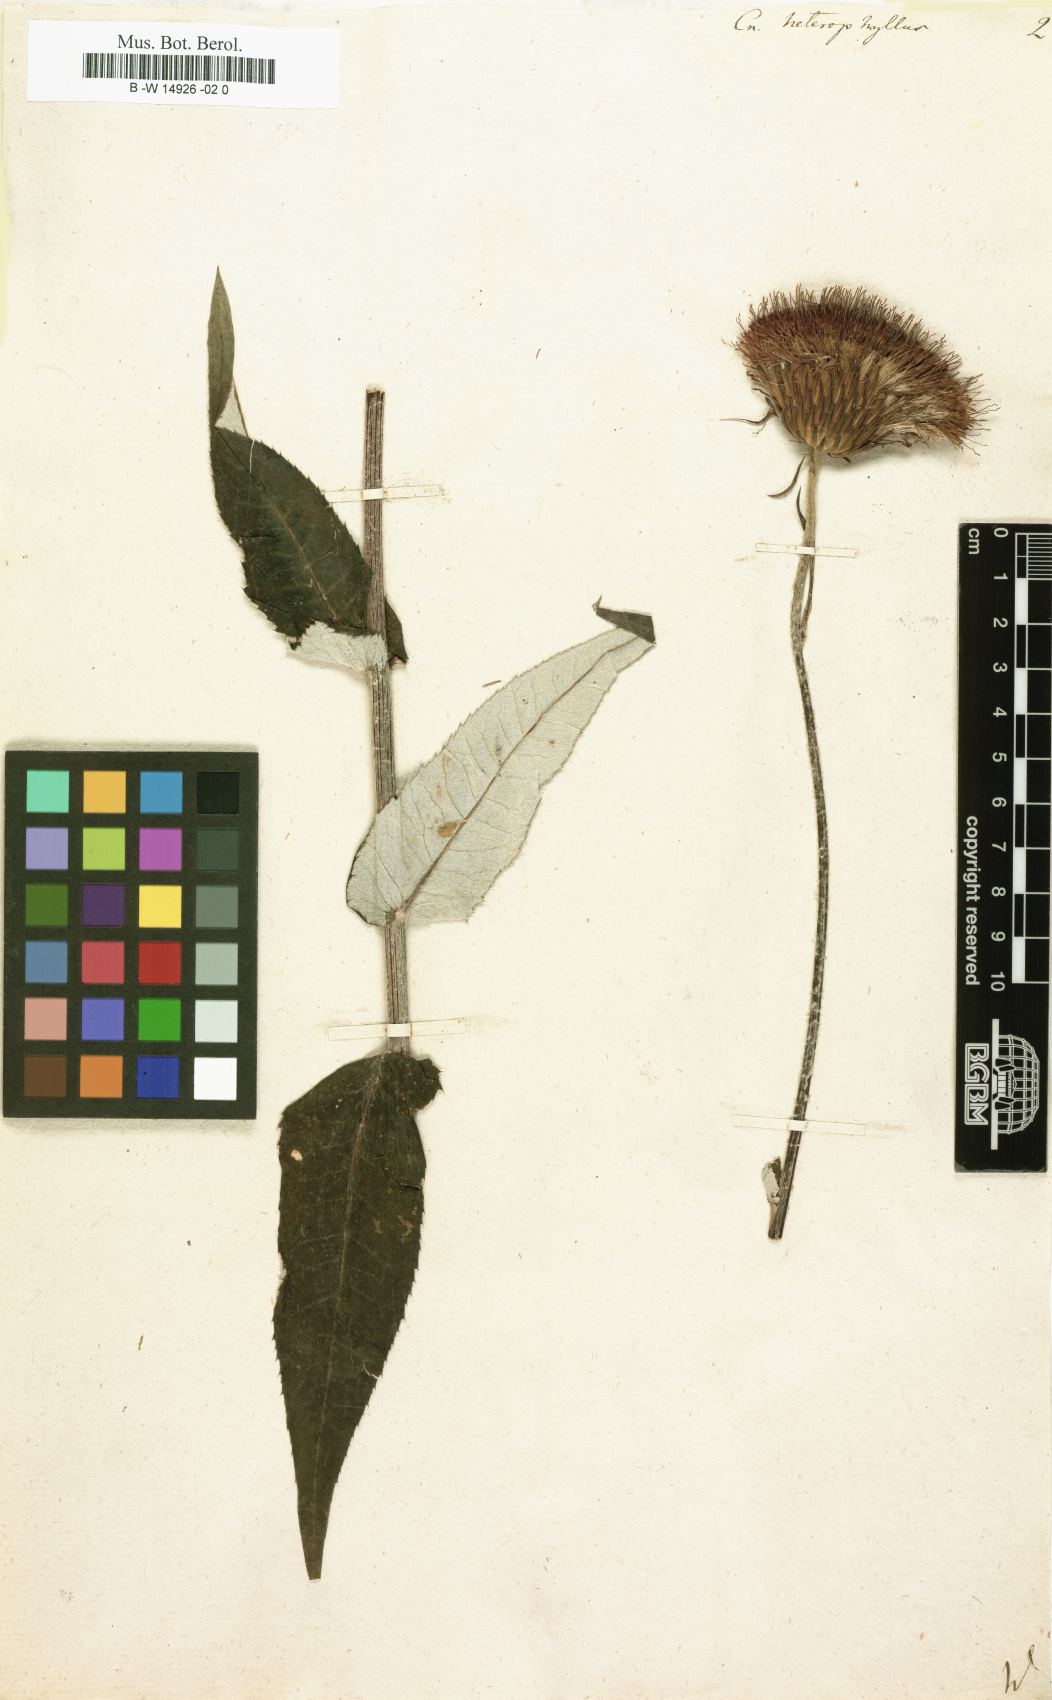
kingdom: Plantae
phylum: Tracheophyta
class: Magnoliopsida
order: Asterales
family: Asteraceae
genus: Cirsium
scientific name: Cirsium heterophyllum
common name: Melancholy thistle
